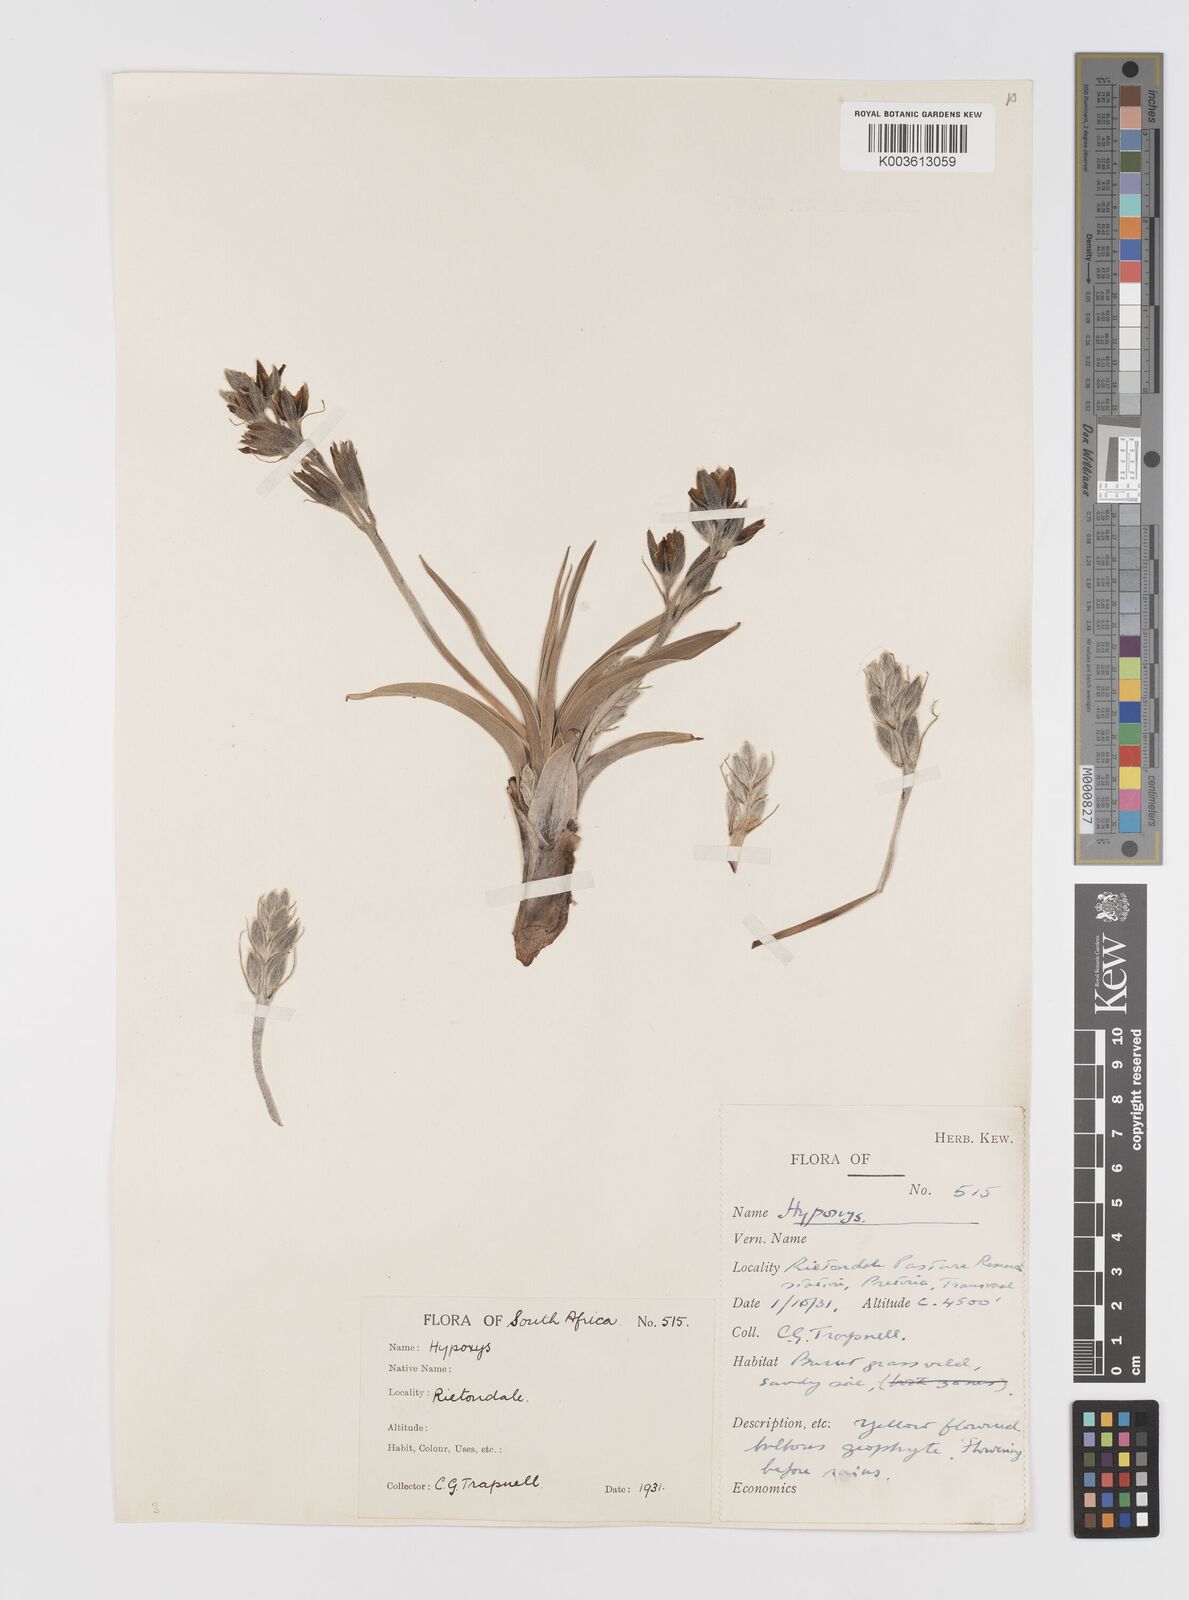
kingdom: Plantae
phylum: Tracheophyta
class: Liliopsida
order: Asparagales
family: Hypoxidaceae
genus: Hypoxis
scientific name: Hypoxis obtusa
